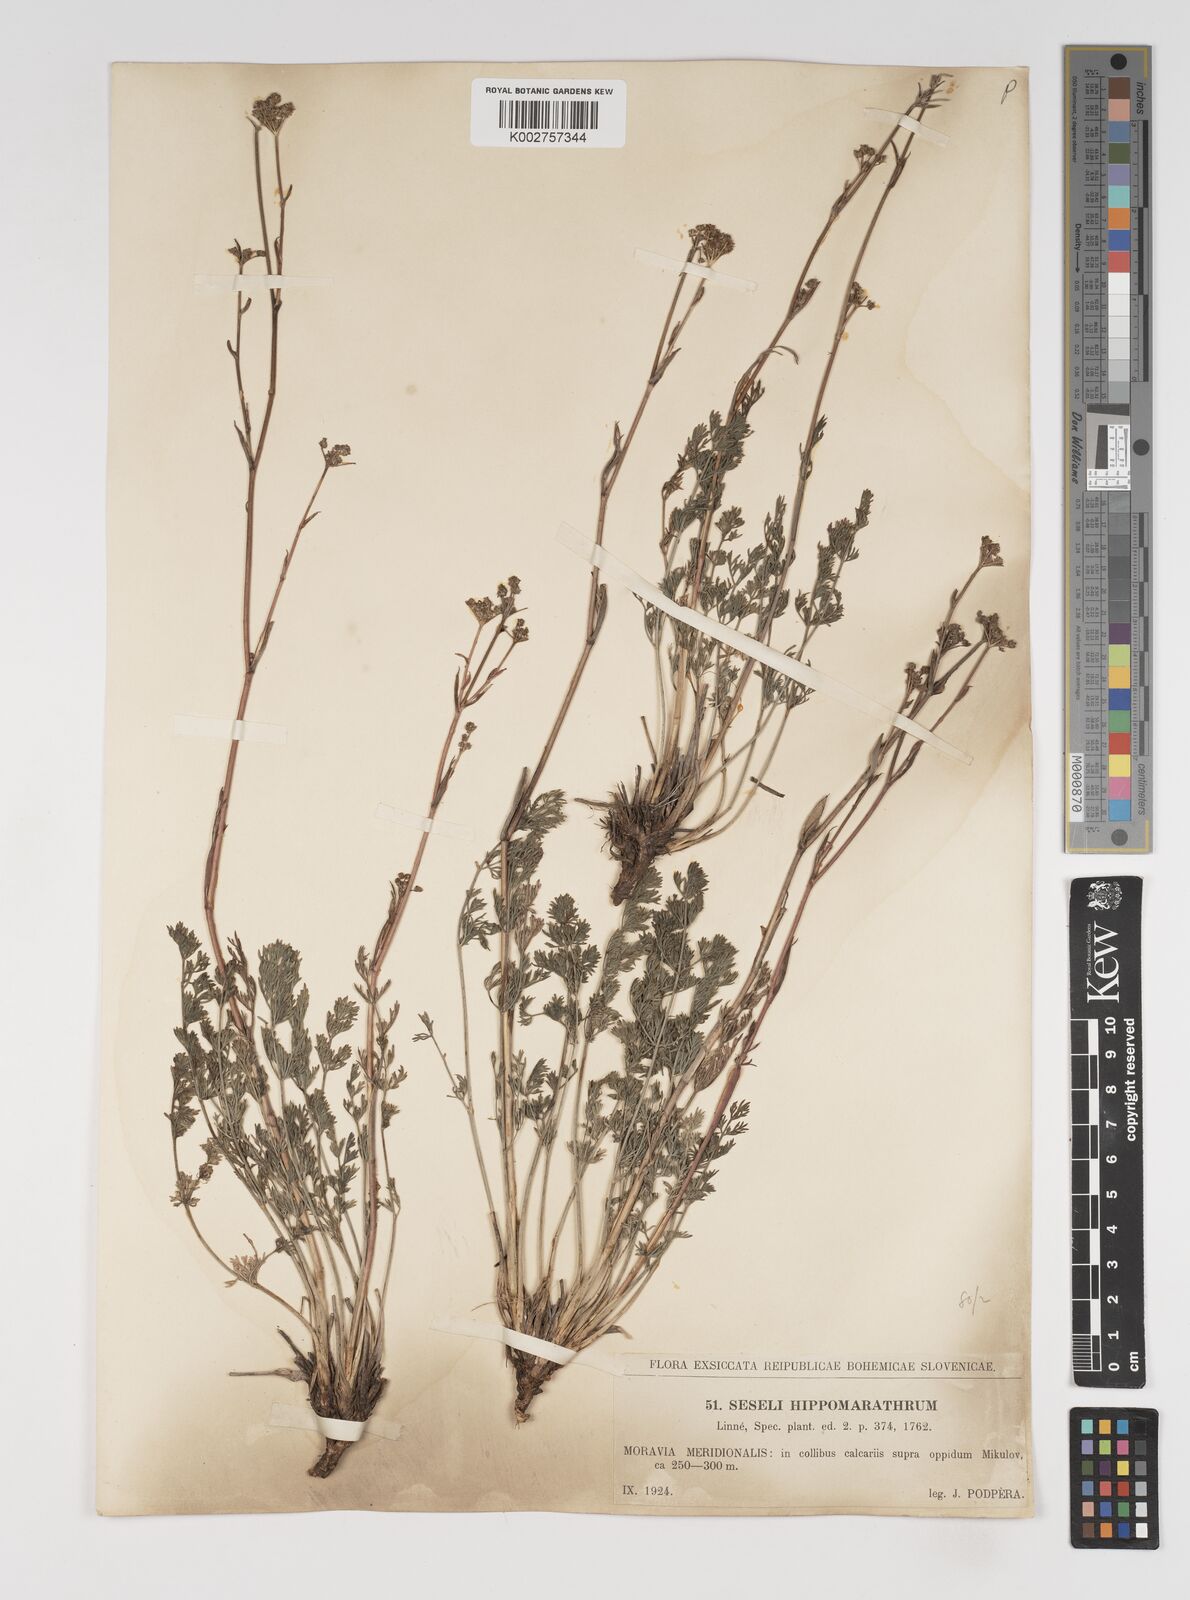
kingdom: Plantae
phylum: Tracheophyta
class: Magnoliopsida
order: Apiales
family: Apiaceae
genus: Seseli
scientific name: Seseli
